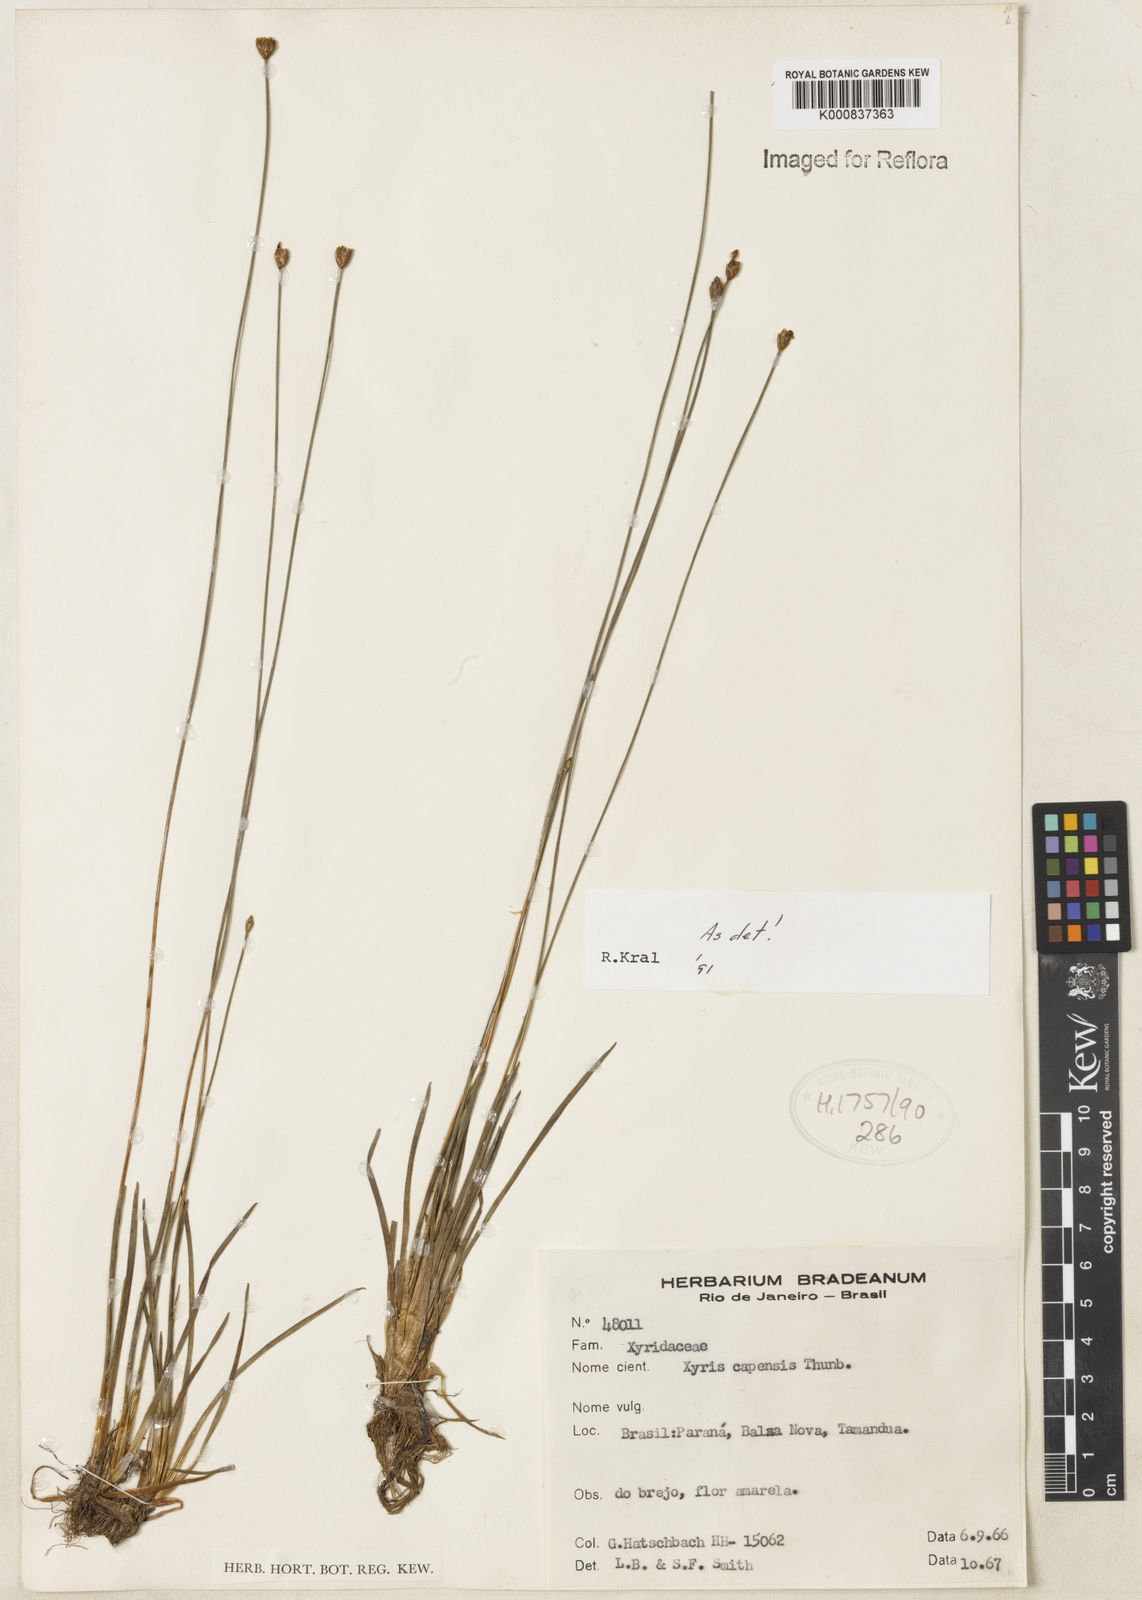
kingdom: Plantae
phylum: Tracheophyta
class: Liliopsida
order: Poales
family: Xyridaceae
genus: Xyris
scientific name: Xyris capensis
